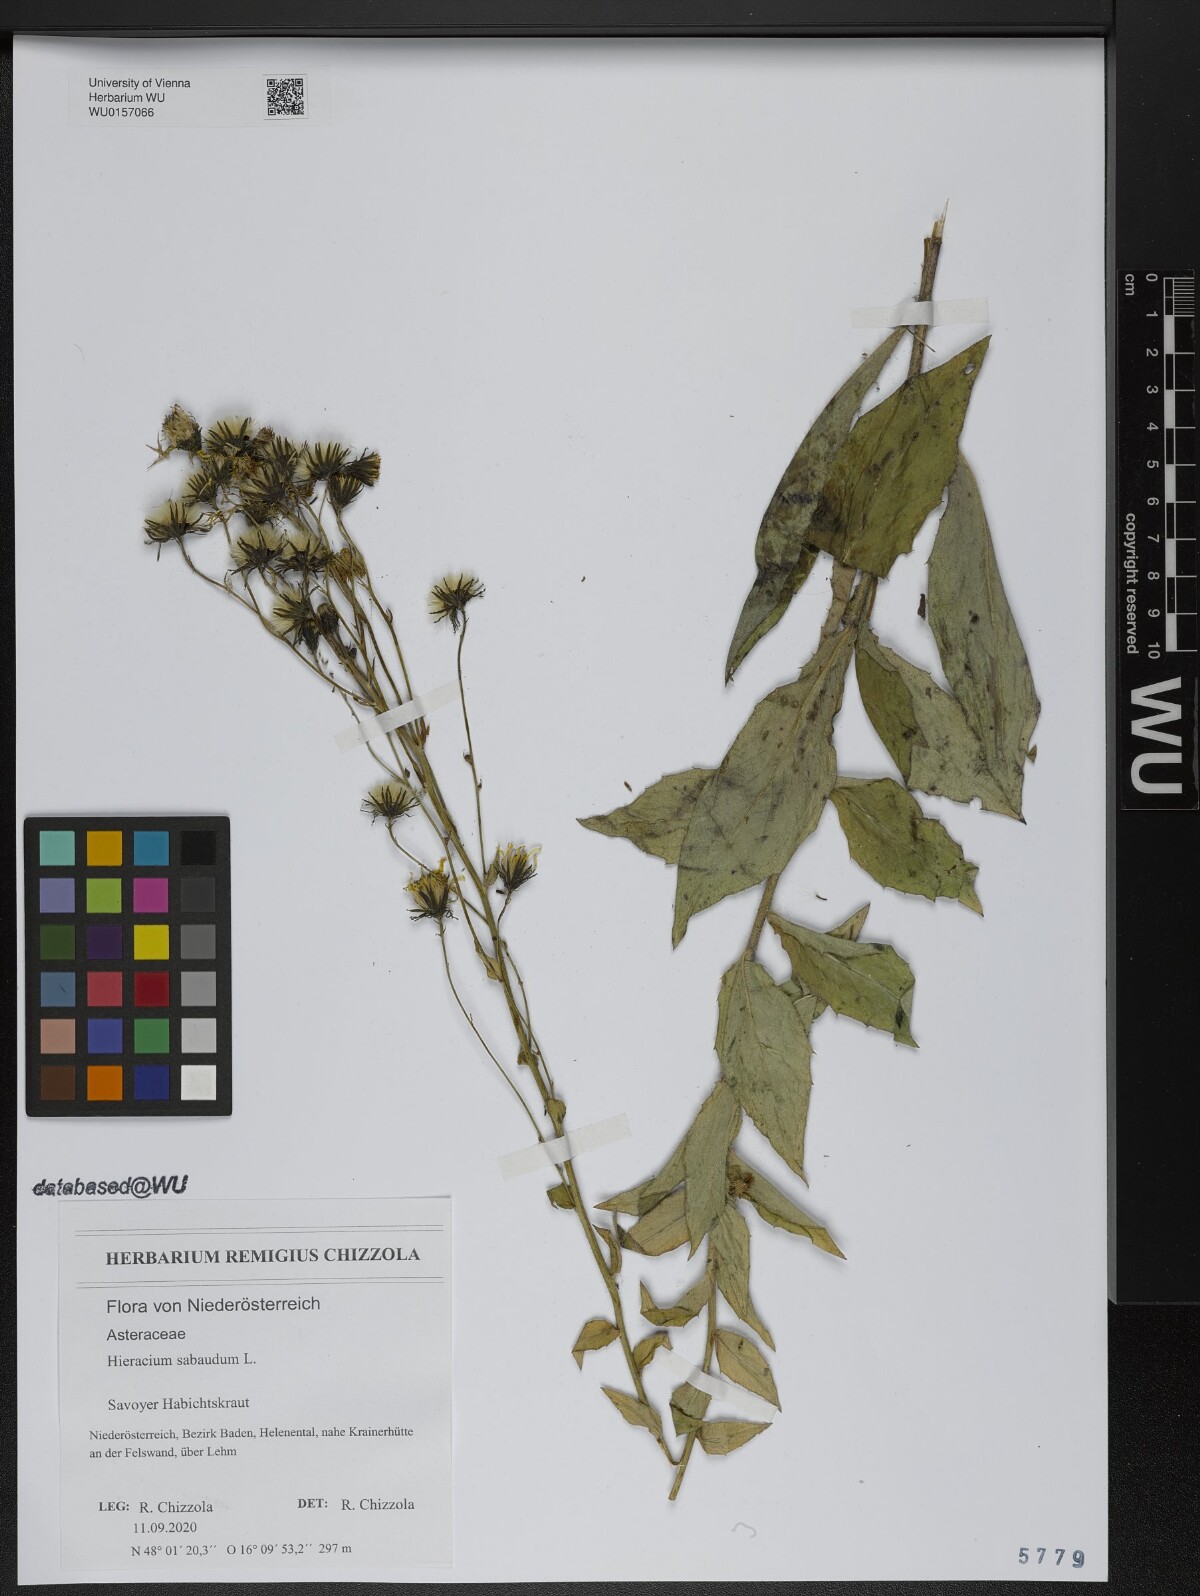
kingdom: Plantae
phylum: Tracheophyta
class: Magnoliopsida
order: Asterales
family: Asteraceae
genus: Hieracium
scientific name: Hieracium sabaudum
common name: New england hawkweed
